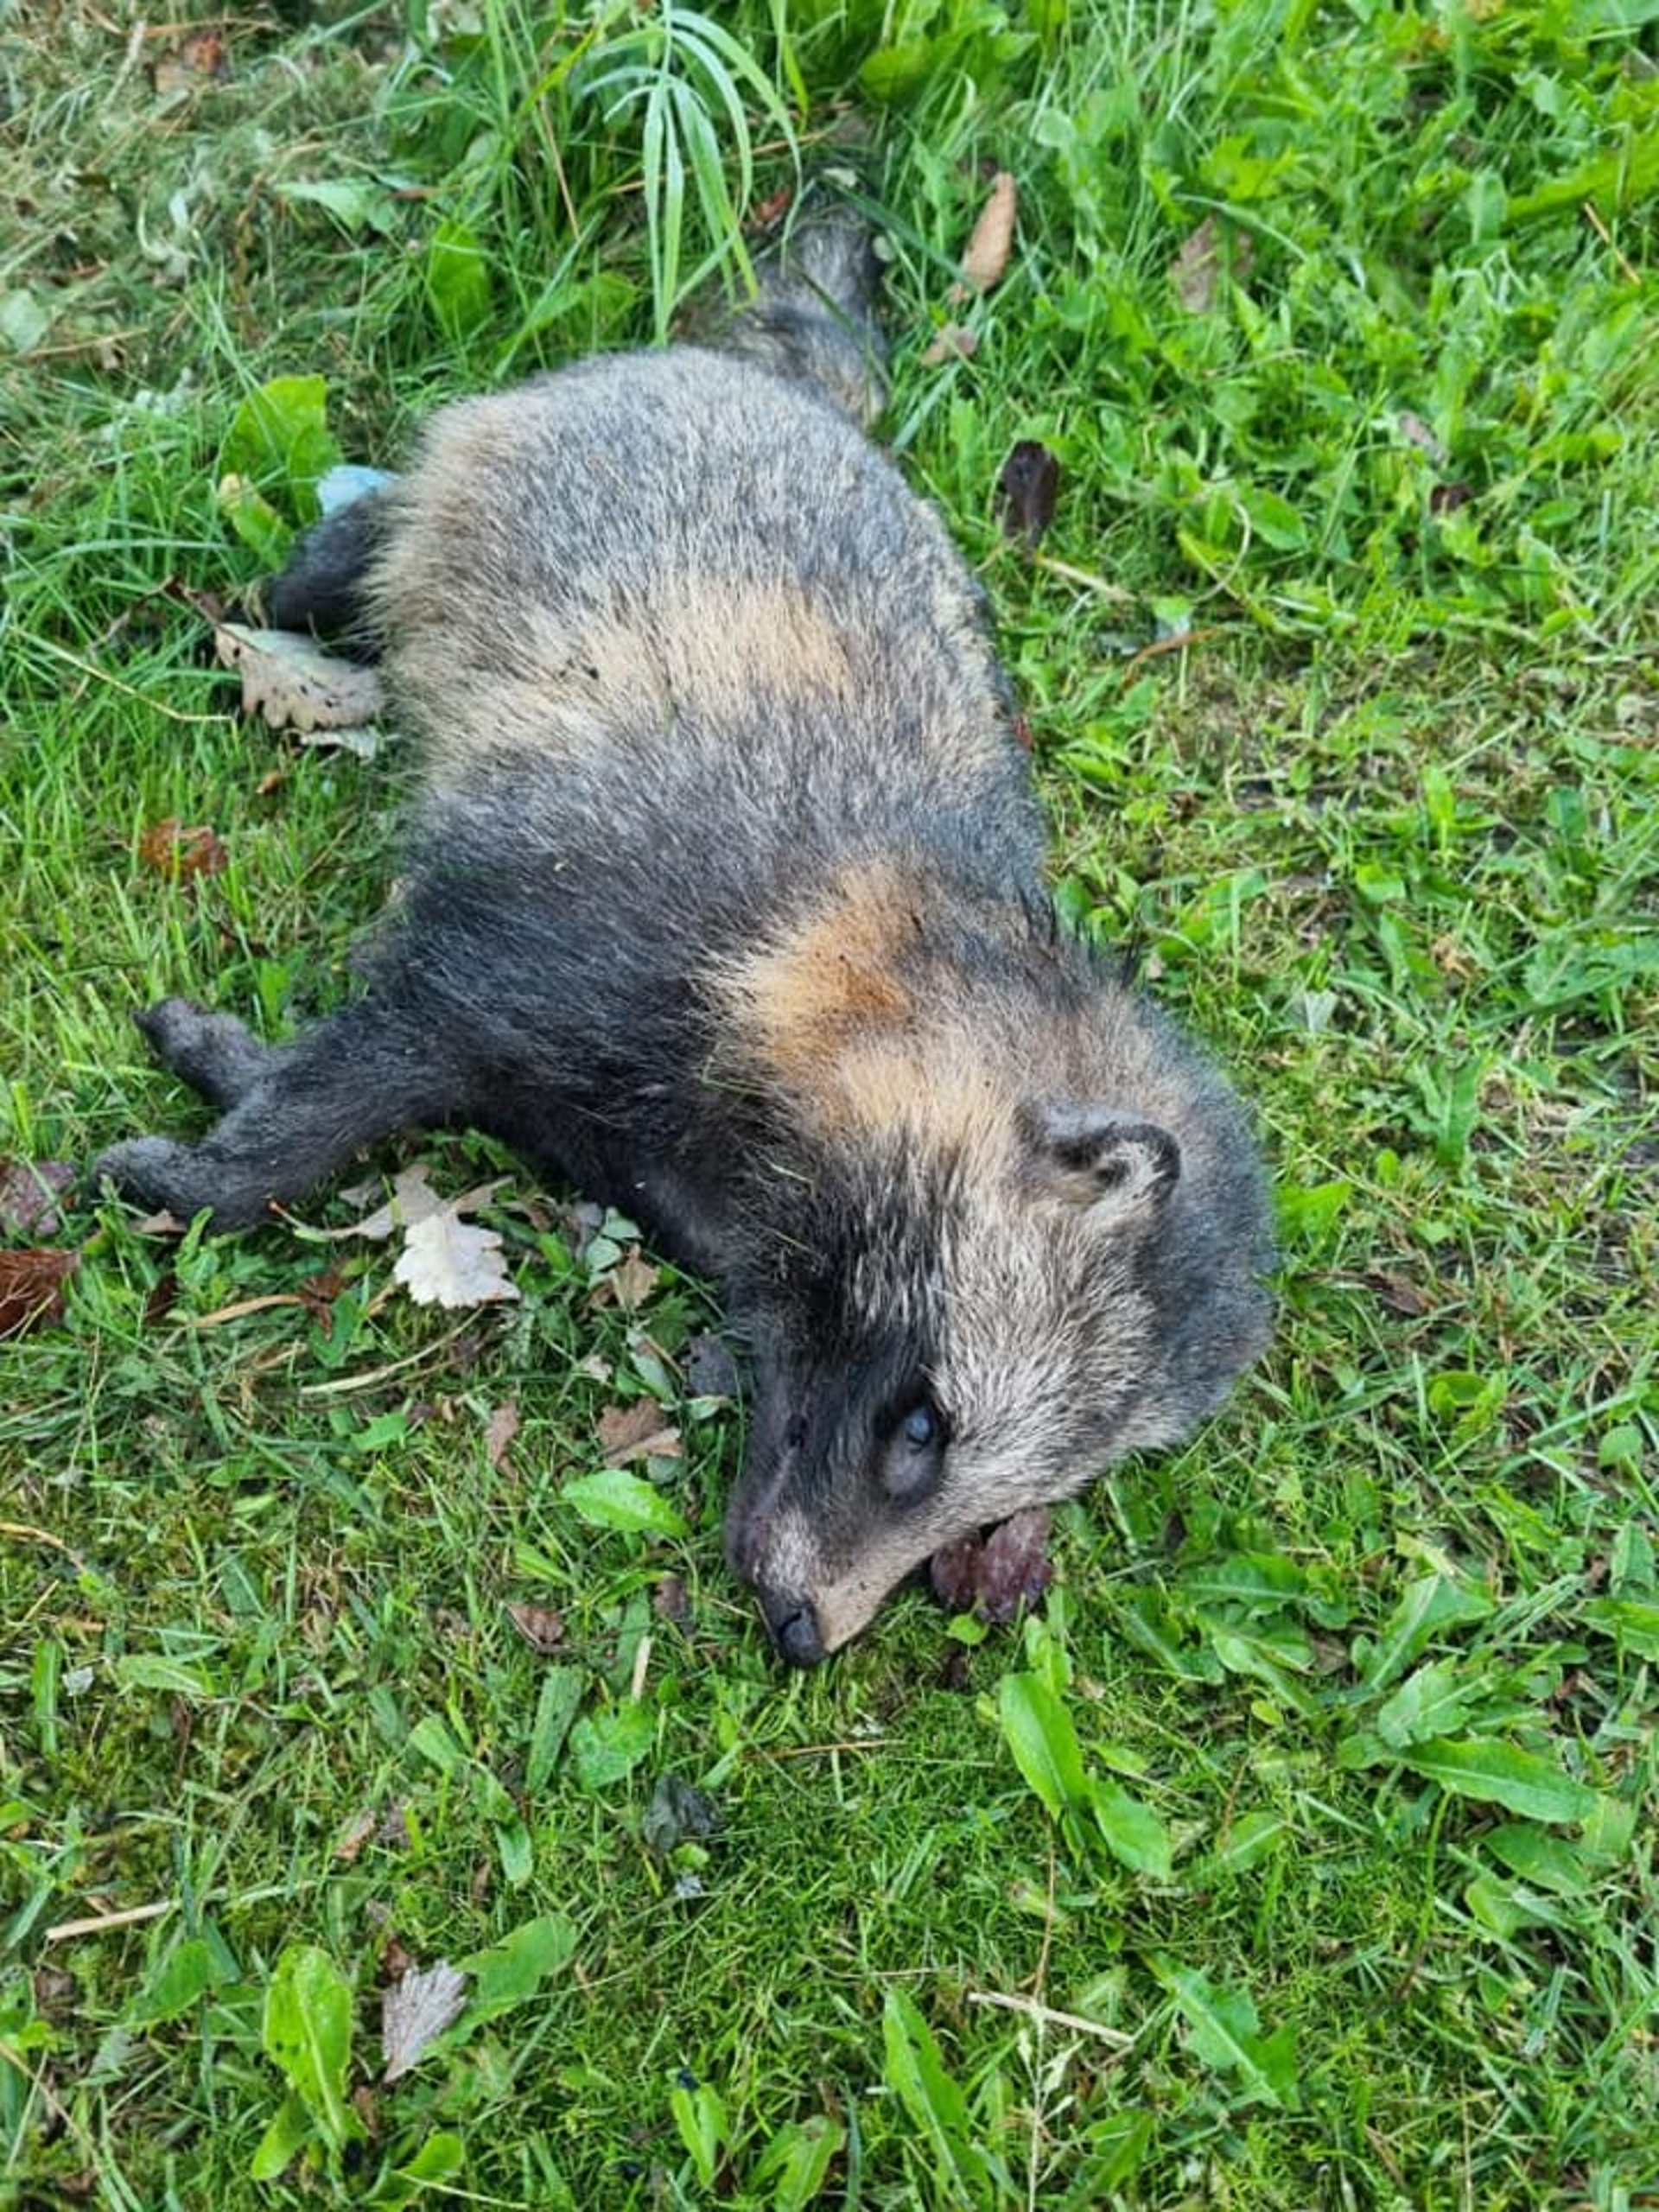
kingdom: Animalia
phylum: Chordata
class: Mammalia
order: Carnivora
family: Canidae
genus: Nyctereutes
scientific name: Nyctereutes procyonoides
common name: Mårhund
